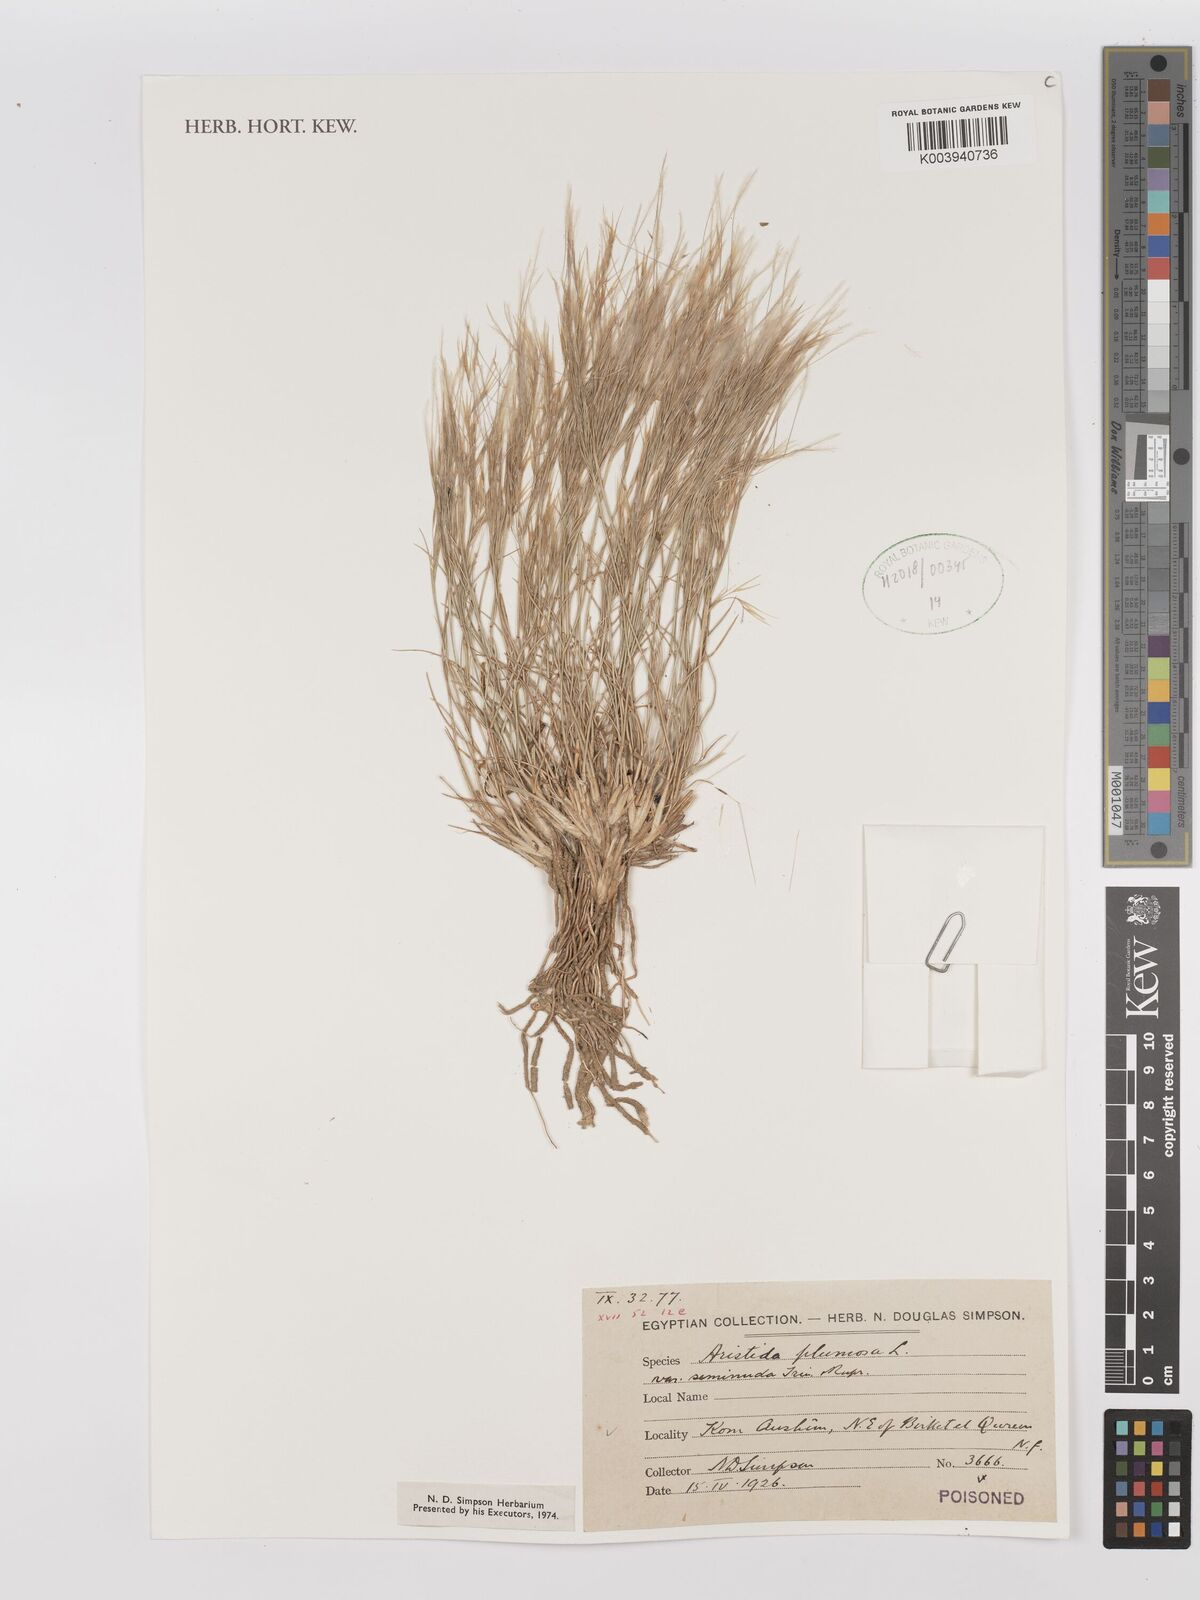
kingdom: Plantae
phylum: Tracheophyta
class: Liliopsida
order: Poales
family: Poaceae
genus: Stipagrostis
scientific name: Stipagrostis plumosa
